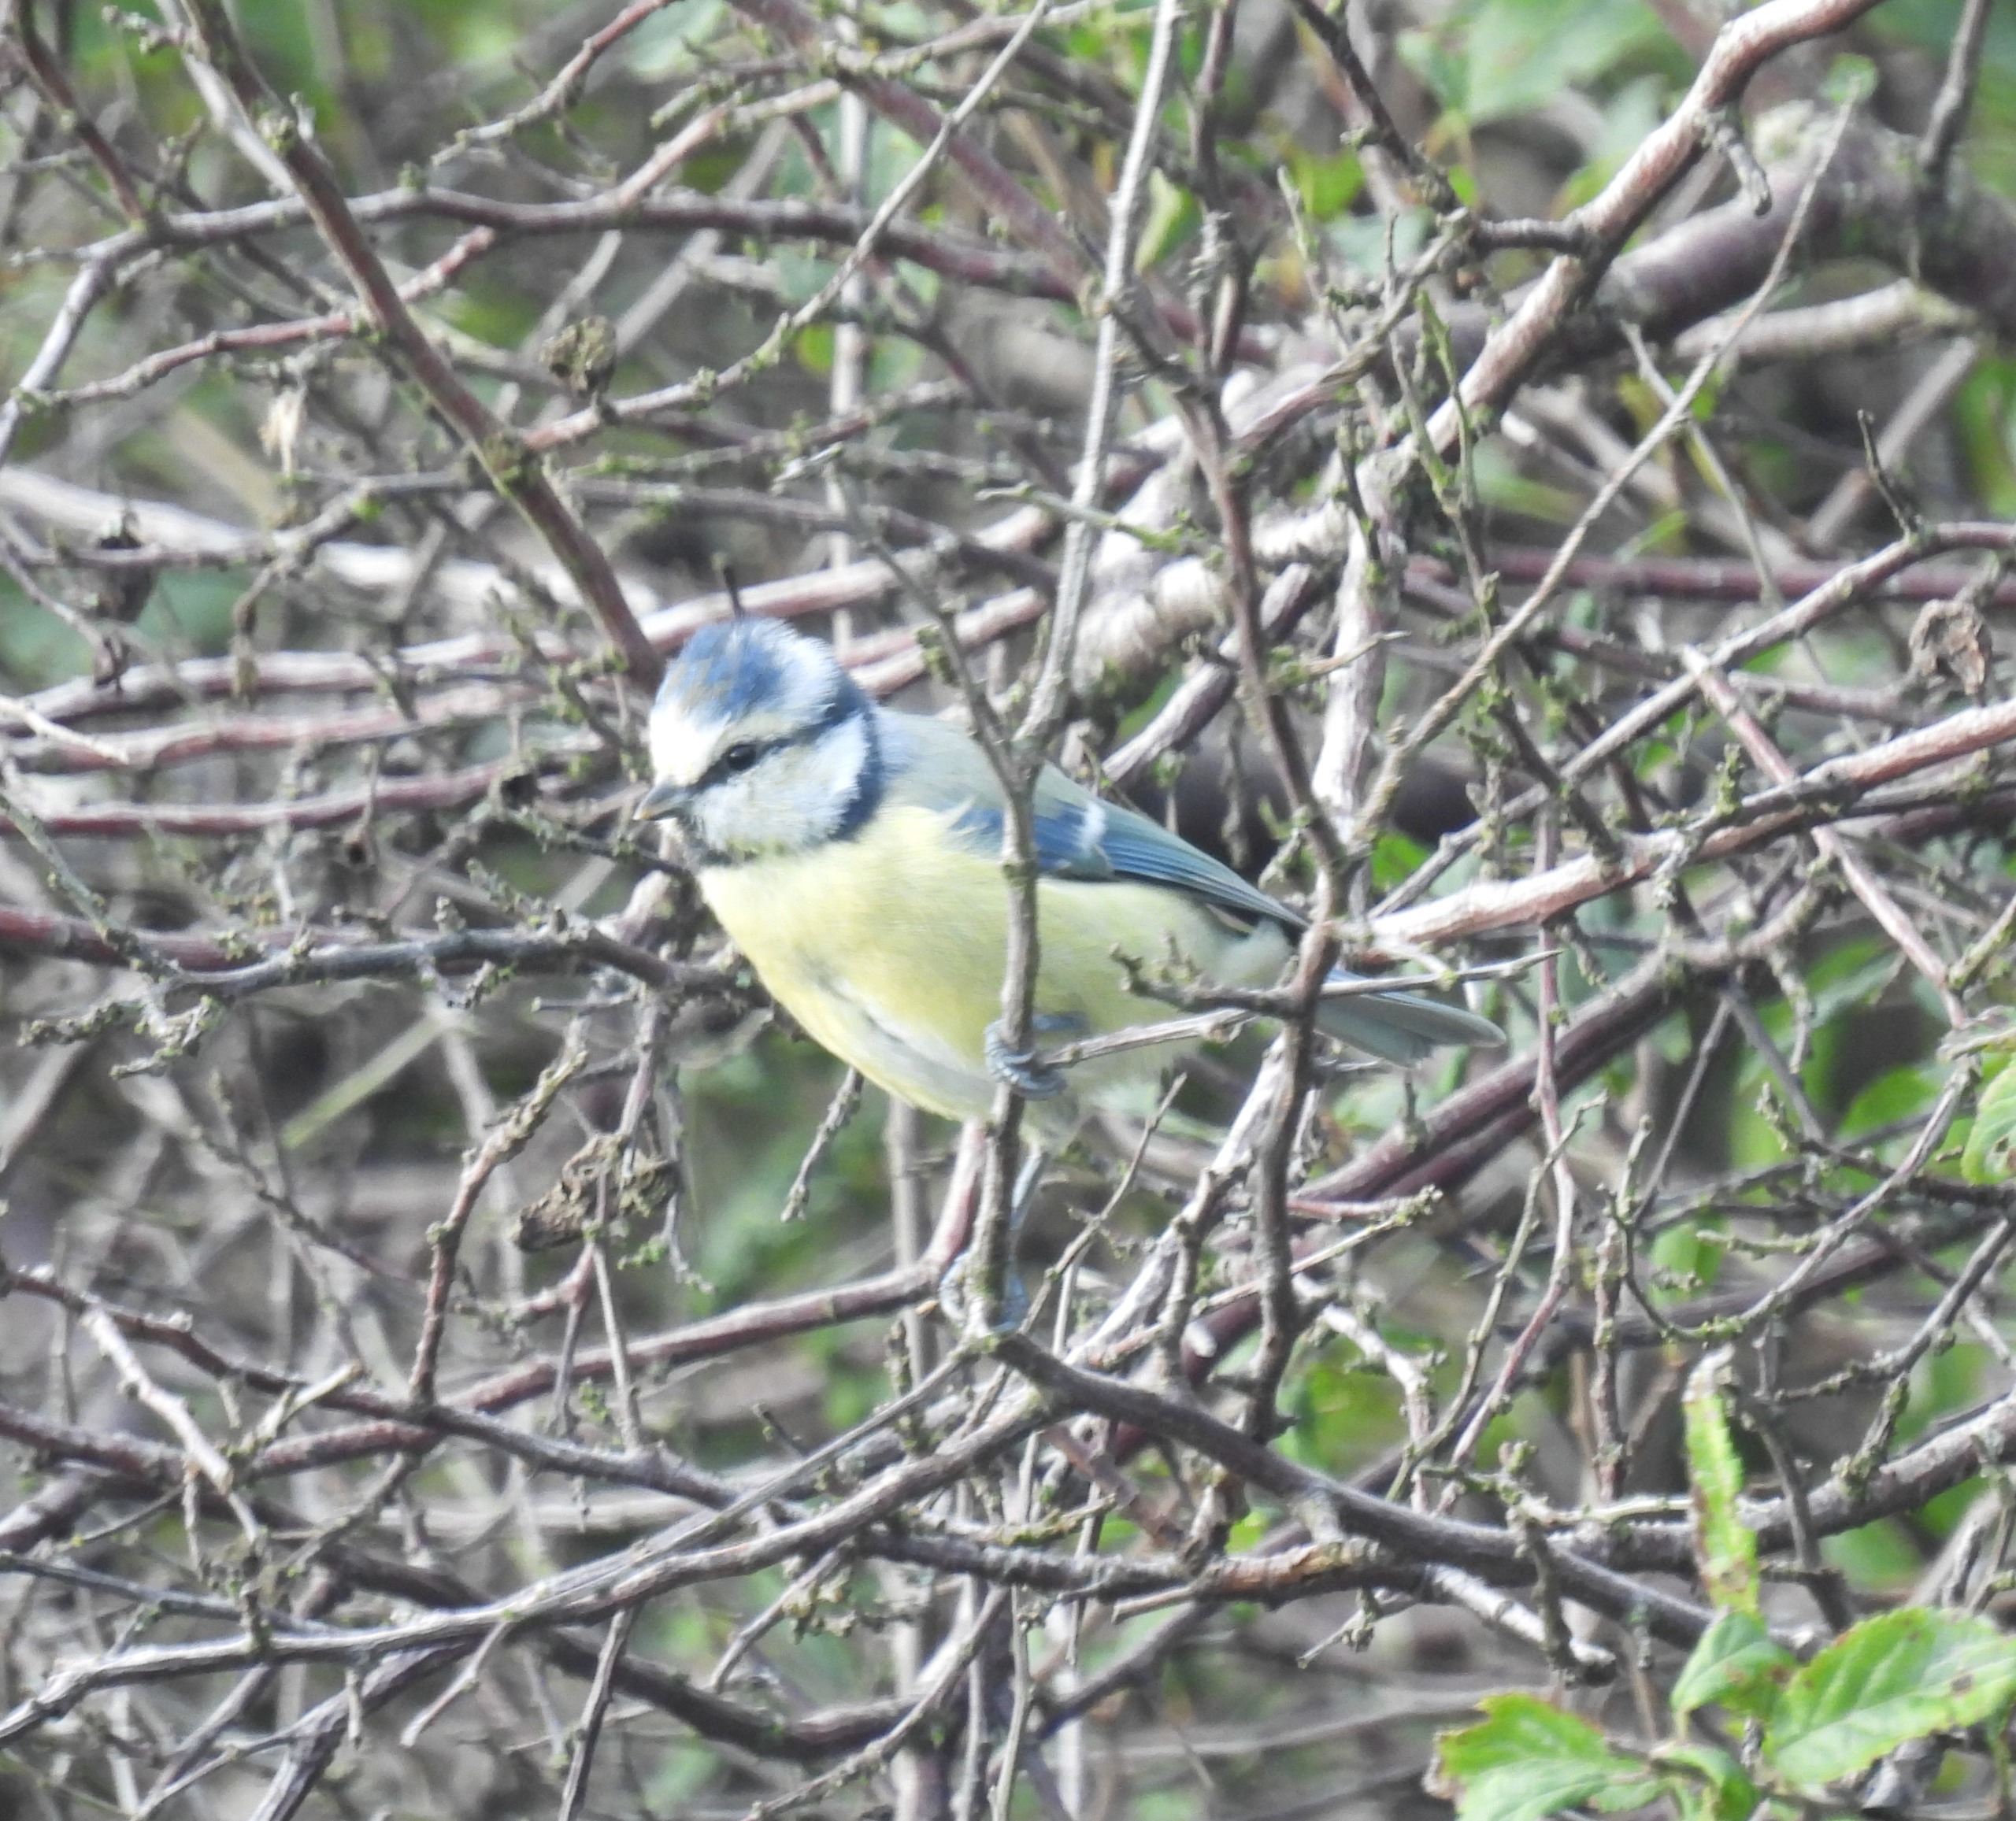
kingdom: Animalia
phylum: Chordata
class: Aves
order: Passeriformes
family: Paridae
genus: Cyanistes
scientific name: Cyanistes caeruleus
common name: Blåmejse
